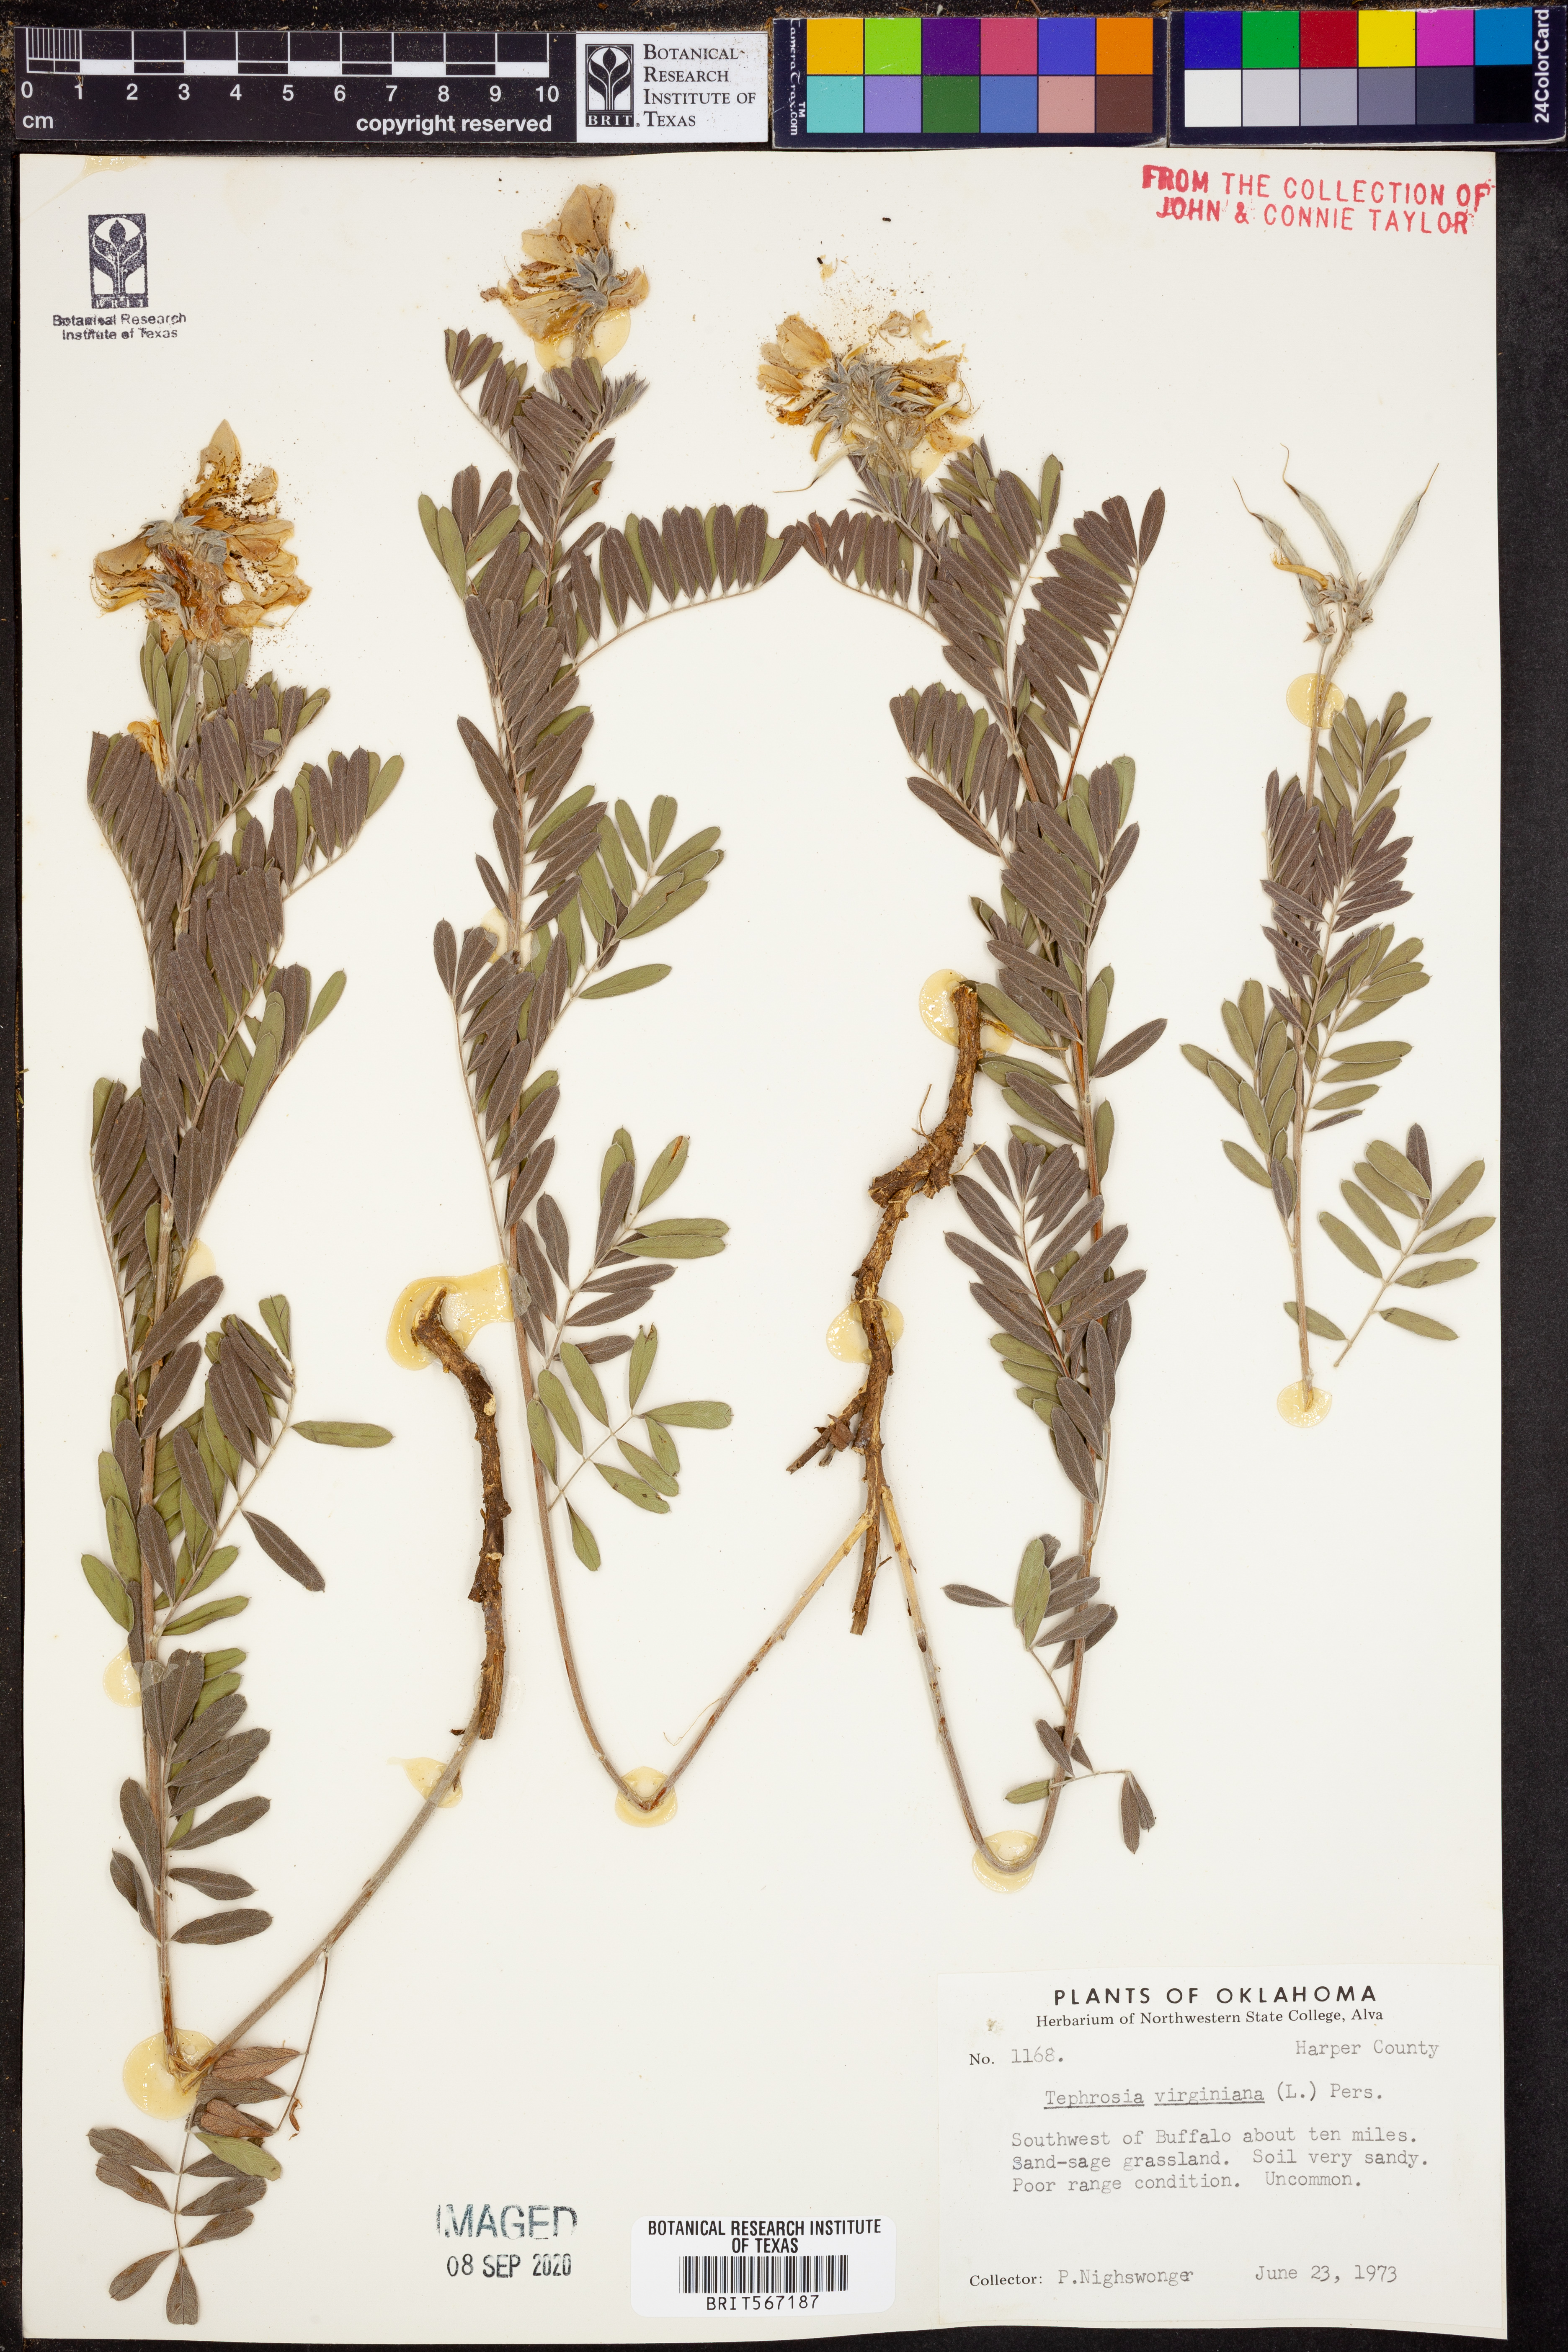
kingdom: Plantae
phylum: Tracheophyta
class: Magnoliopsida
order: Fabales
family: Fabaceae
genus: Tephrosia
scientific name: Tephrosia virginiana
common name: Rabbit-pea
